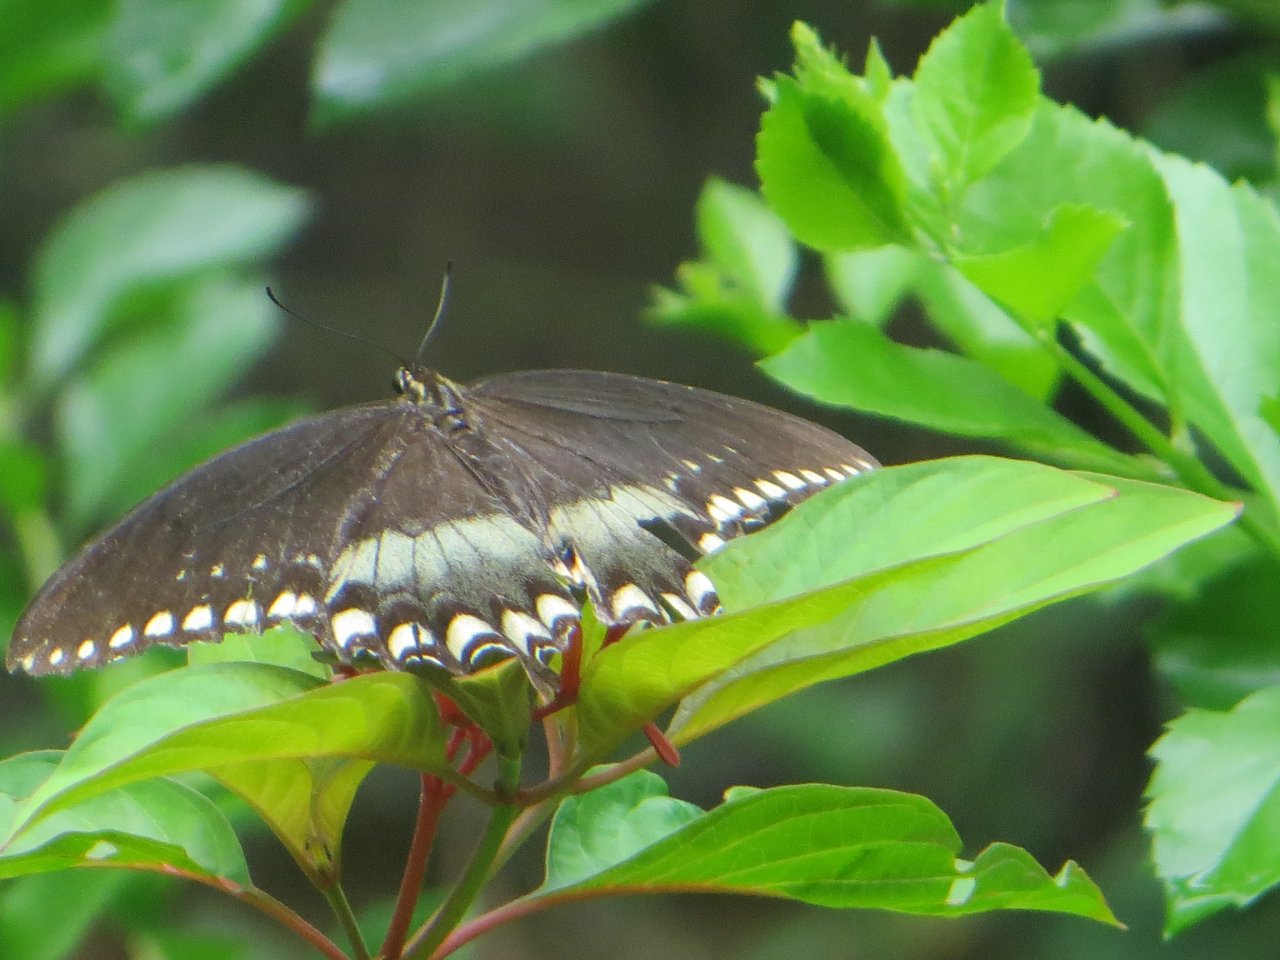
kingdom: Animalia
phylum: Arthropoda
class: Insecta
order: Lepidoptera
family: Papilionidae
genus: Pterourus
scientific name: Pterourus troilus
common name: Spicebush Swallowtail
